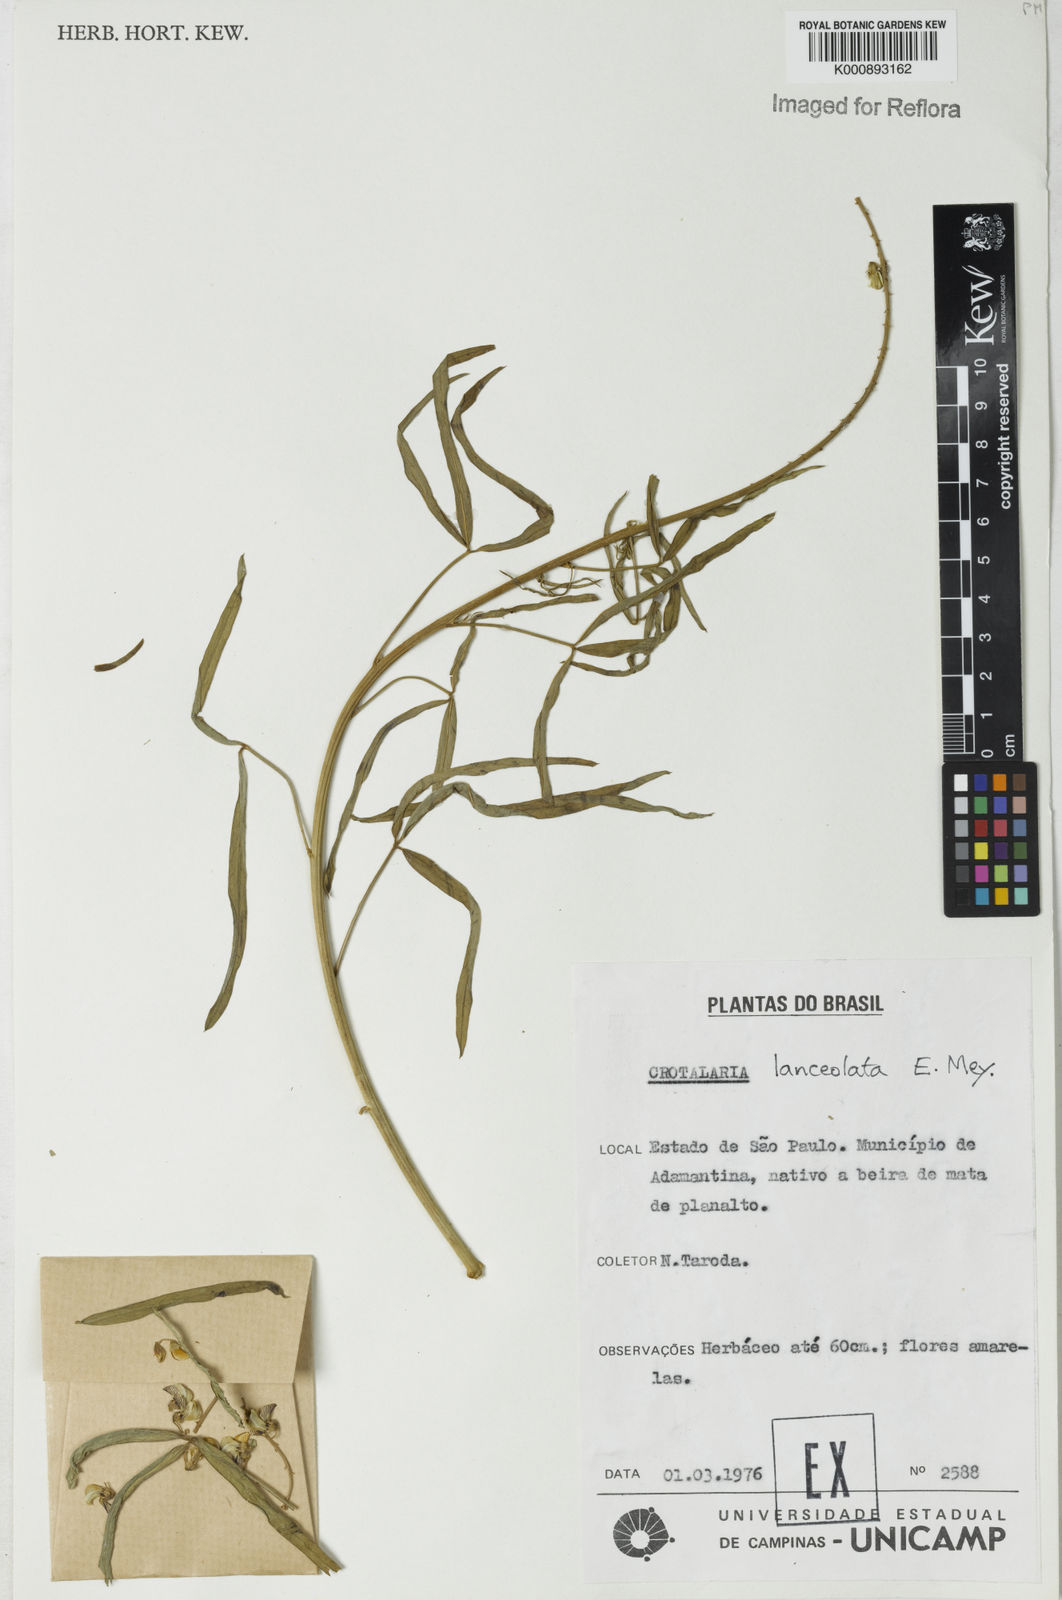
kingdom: Plantae
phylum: Tracheophyta
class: Magnoliopsida
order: Fabales
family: Fabaceae
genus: Crotalaria
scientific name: Crotalaria lanceolata
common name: Lanceleaf rattlebox
